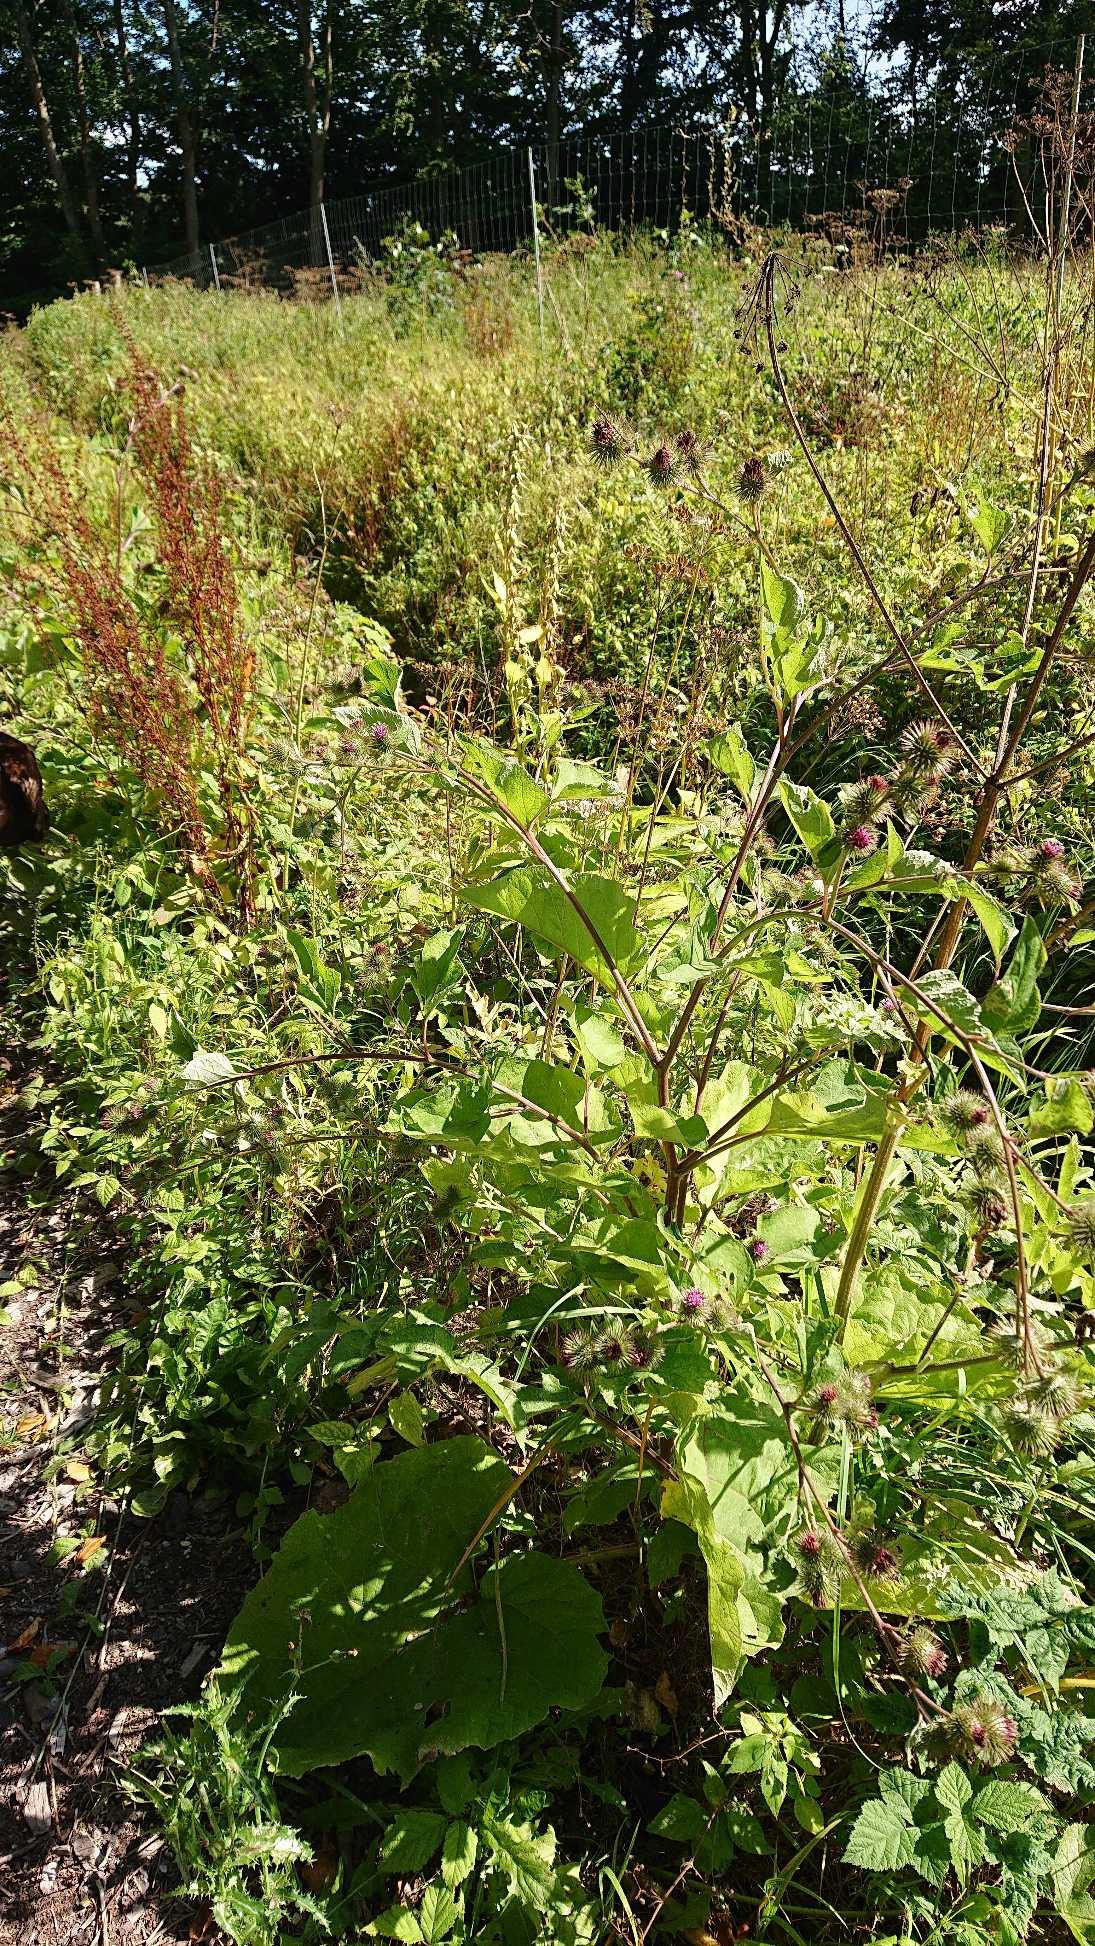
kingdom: Plantae
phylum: Tracheophyta
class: Magnoliopsida
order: Asterales
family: Asteraceae
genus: Arctium
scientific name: Arctium nemorosum
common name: Skov-burre
